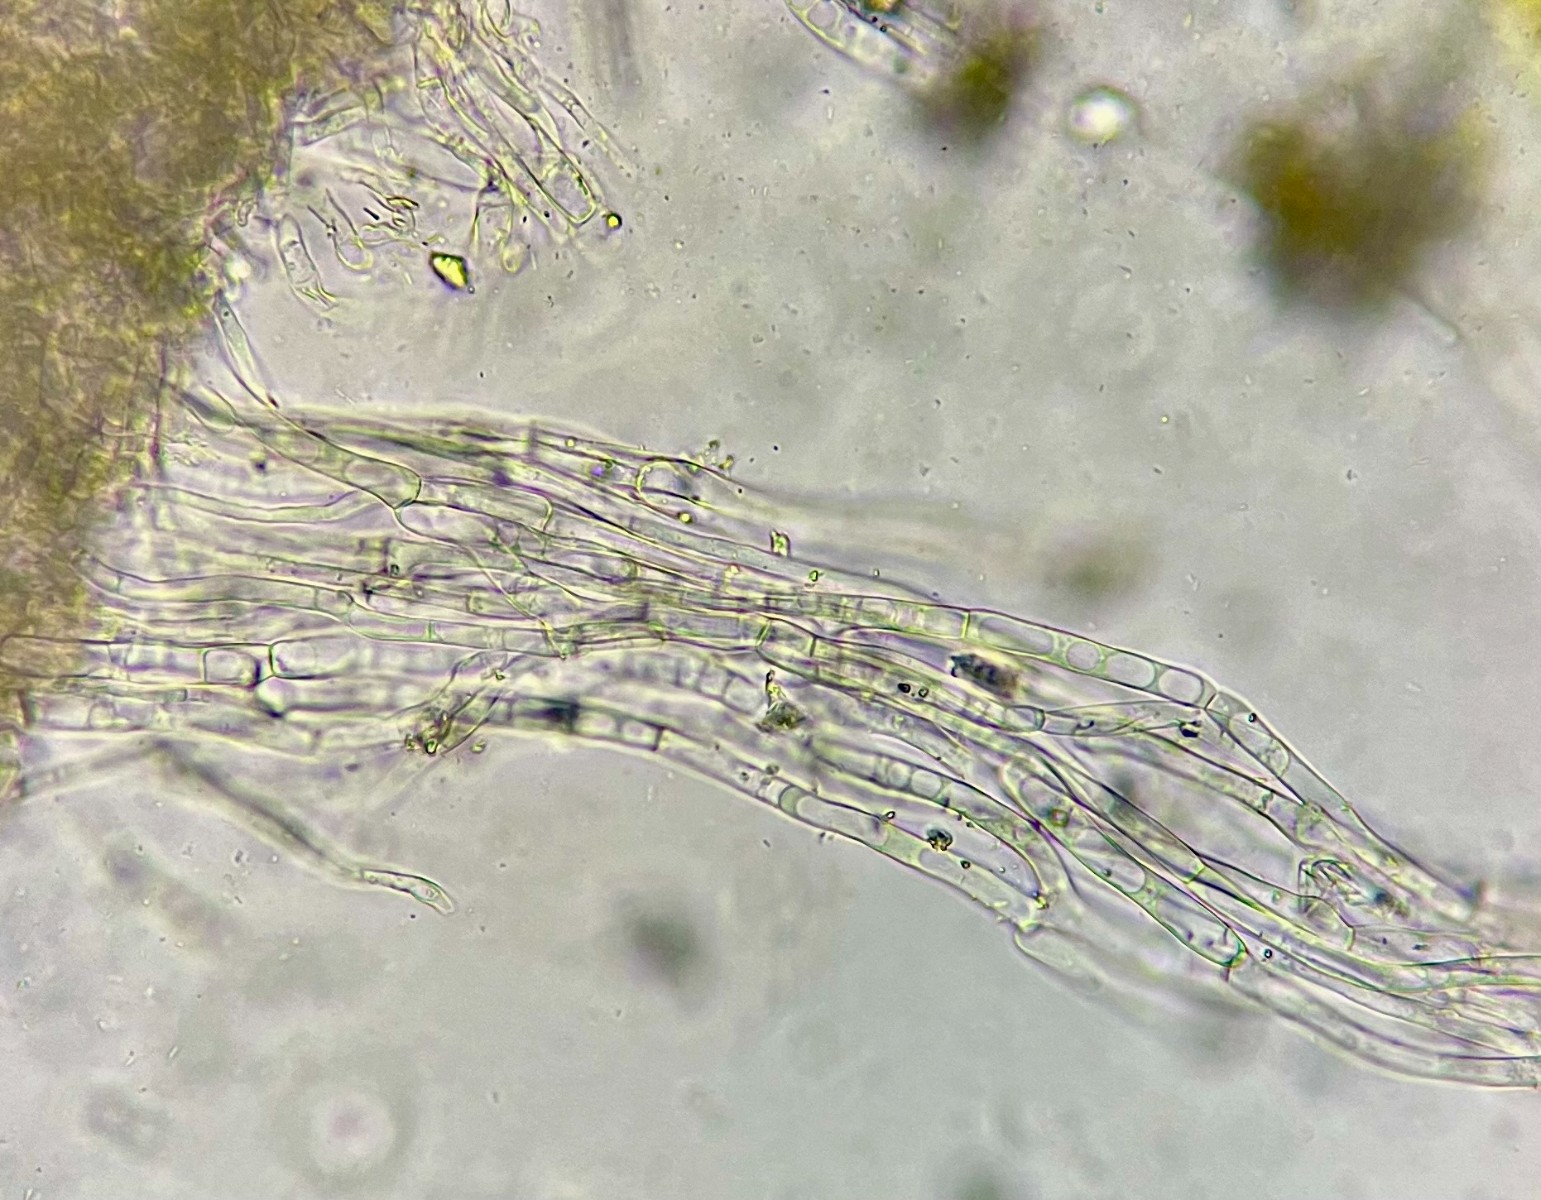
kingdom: Fungi
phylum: Basidiomycota
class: Agaricomycetes
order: Agaricales
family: Hygrophoraceae
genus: Arrhenia
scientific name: Arrhenia rickenii
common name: krusbladet fontænehat
